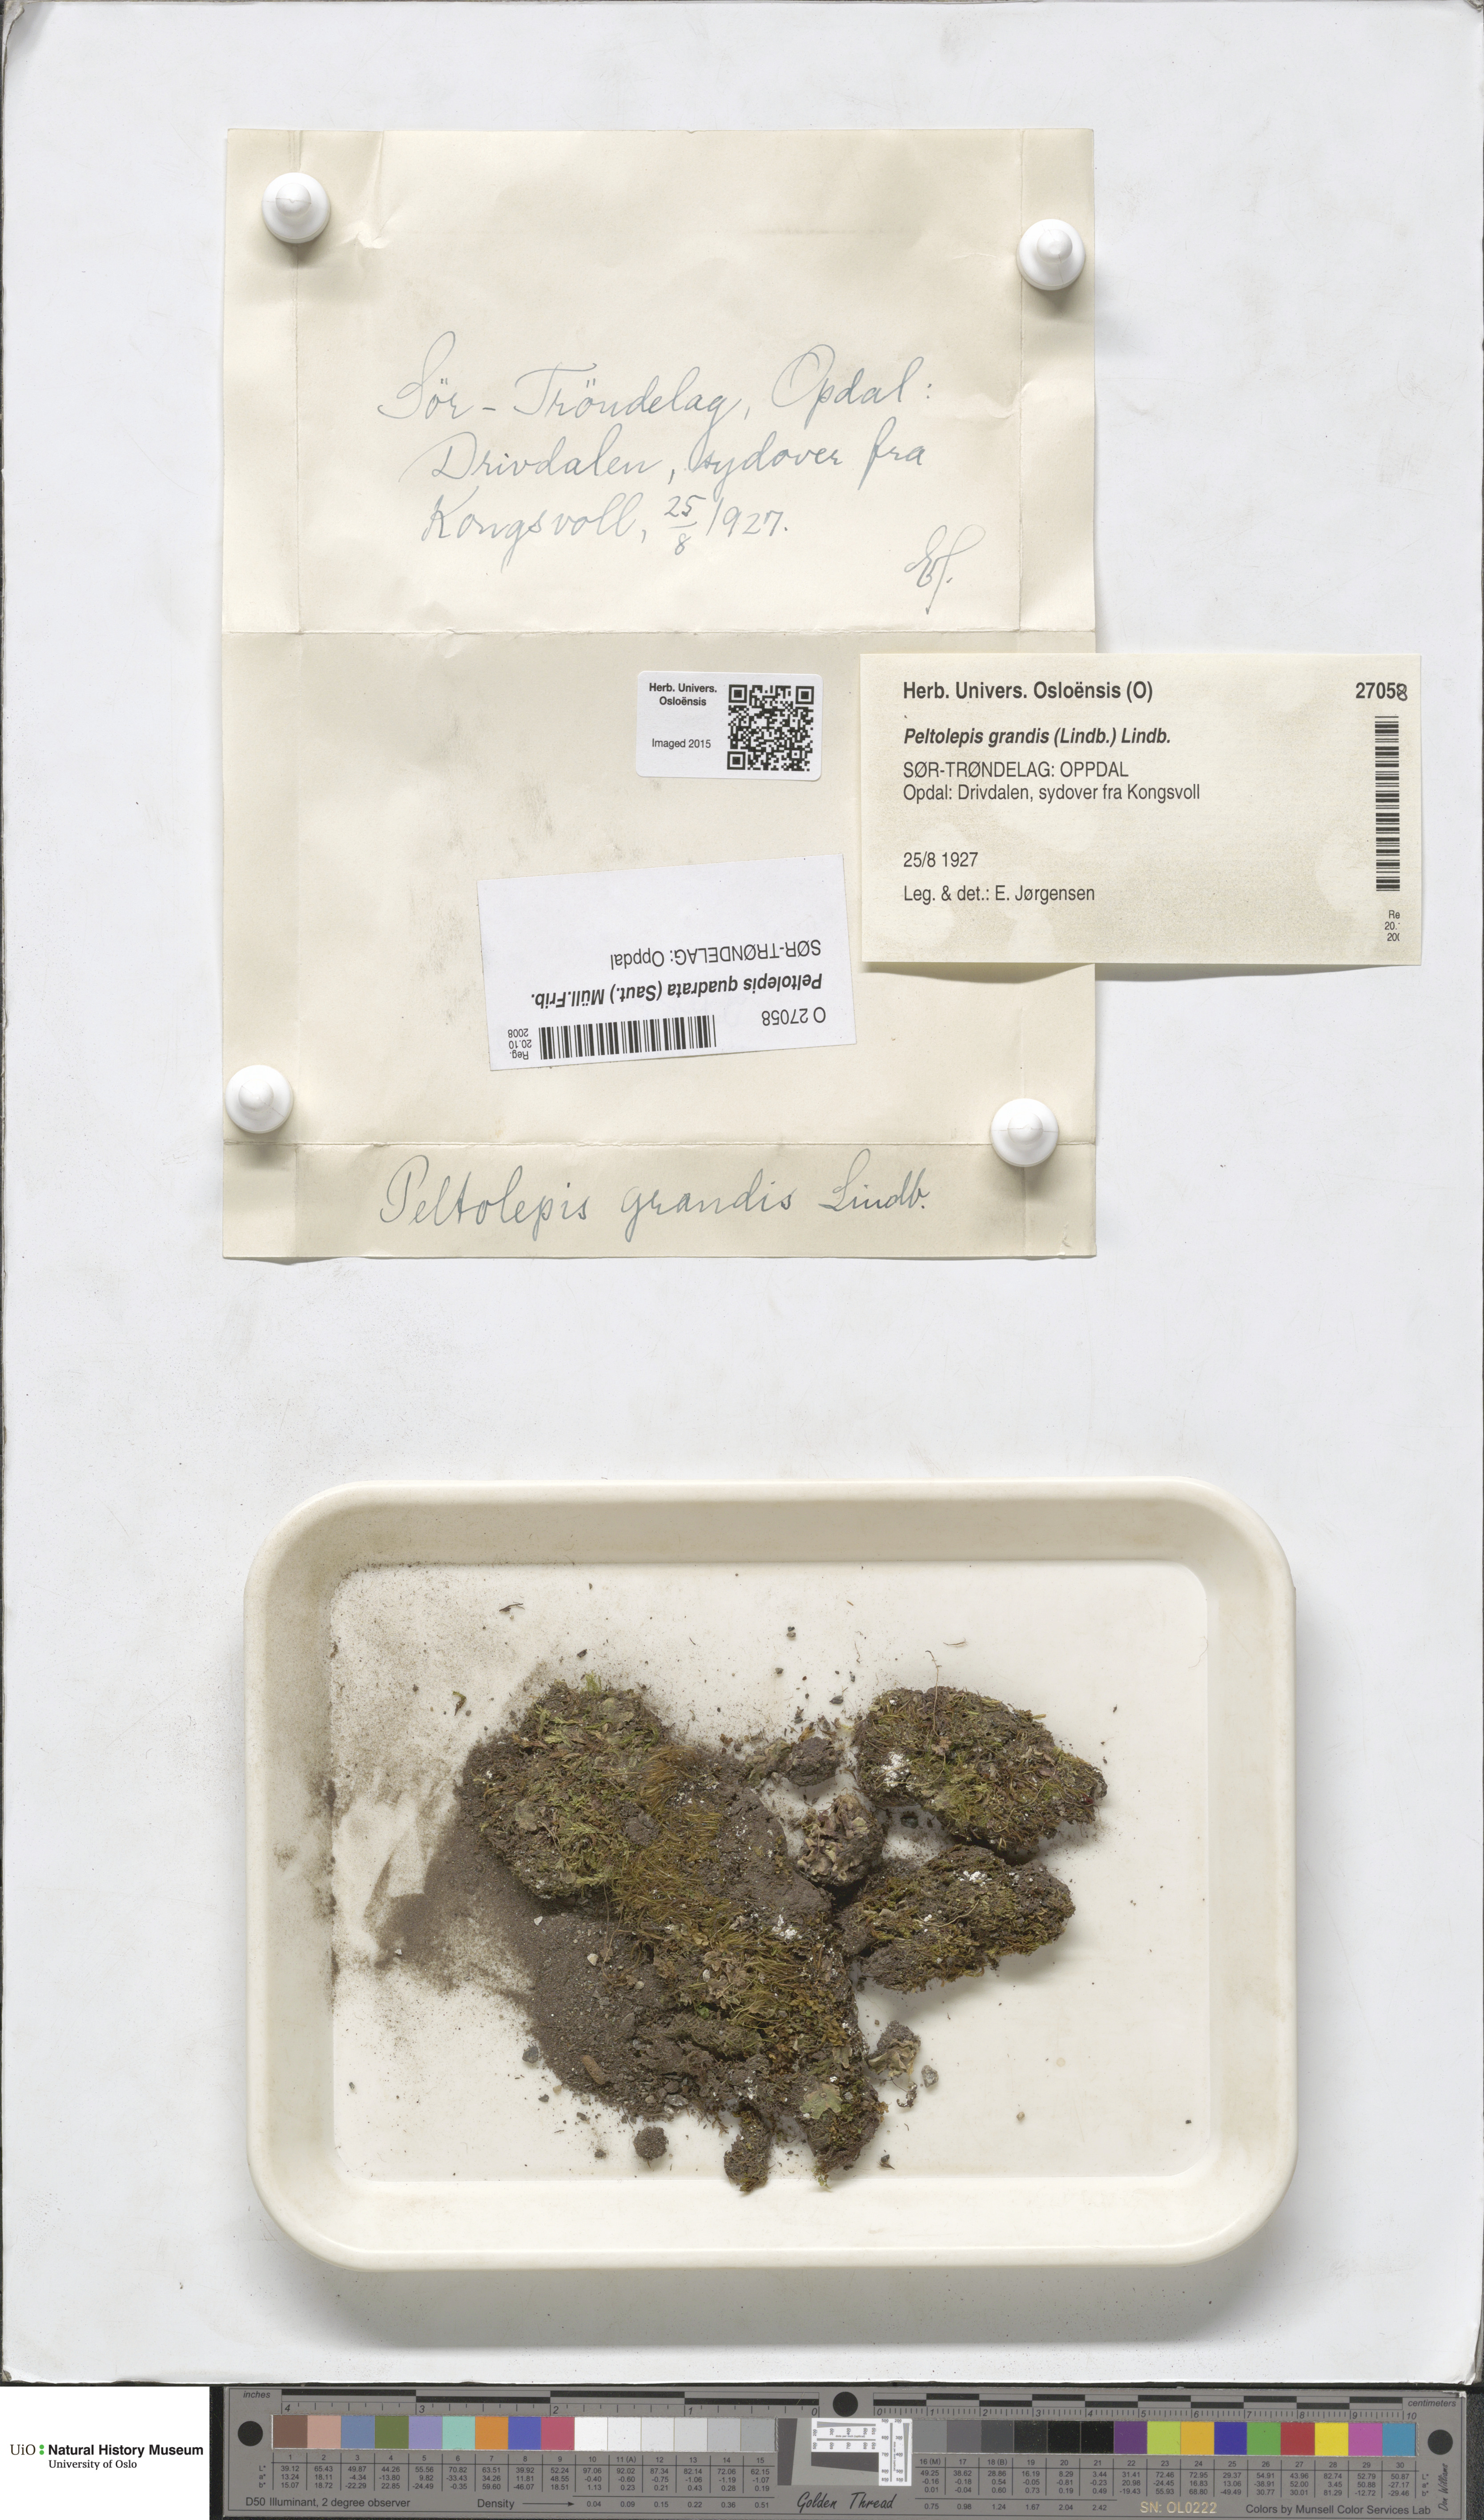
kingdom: Plantae
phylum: Marchantiophyta
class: Marchantiopsida
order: Marchantiales
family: Cleveaceae
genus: Peltolepis
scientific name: Peltolepis quadrata
